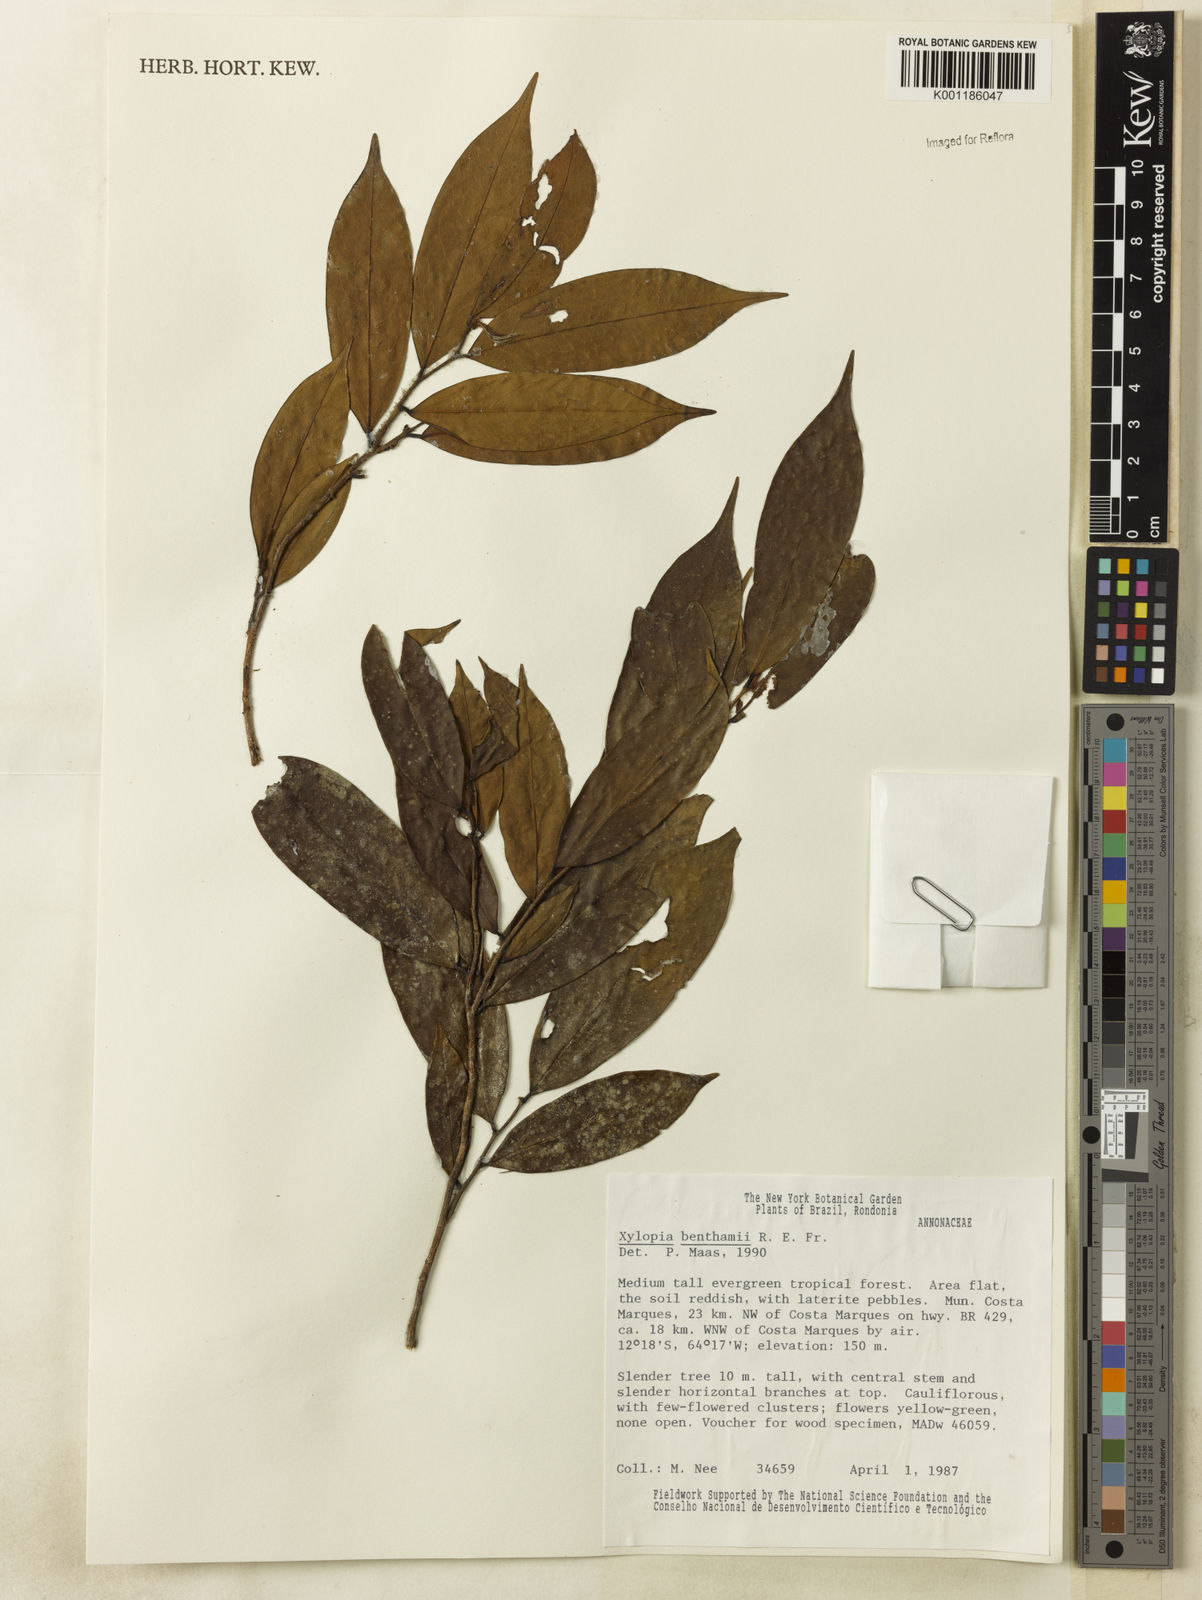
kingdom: Plantae
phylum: Tracheophyta
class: Magnoliopsida
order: Magnoliales
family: Annonaceae
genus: Xylopia
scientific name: Xylopia benthamii
